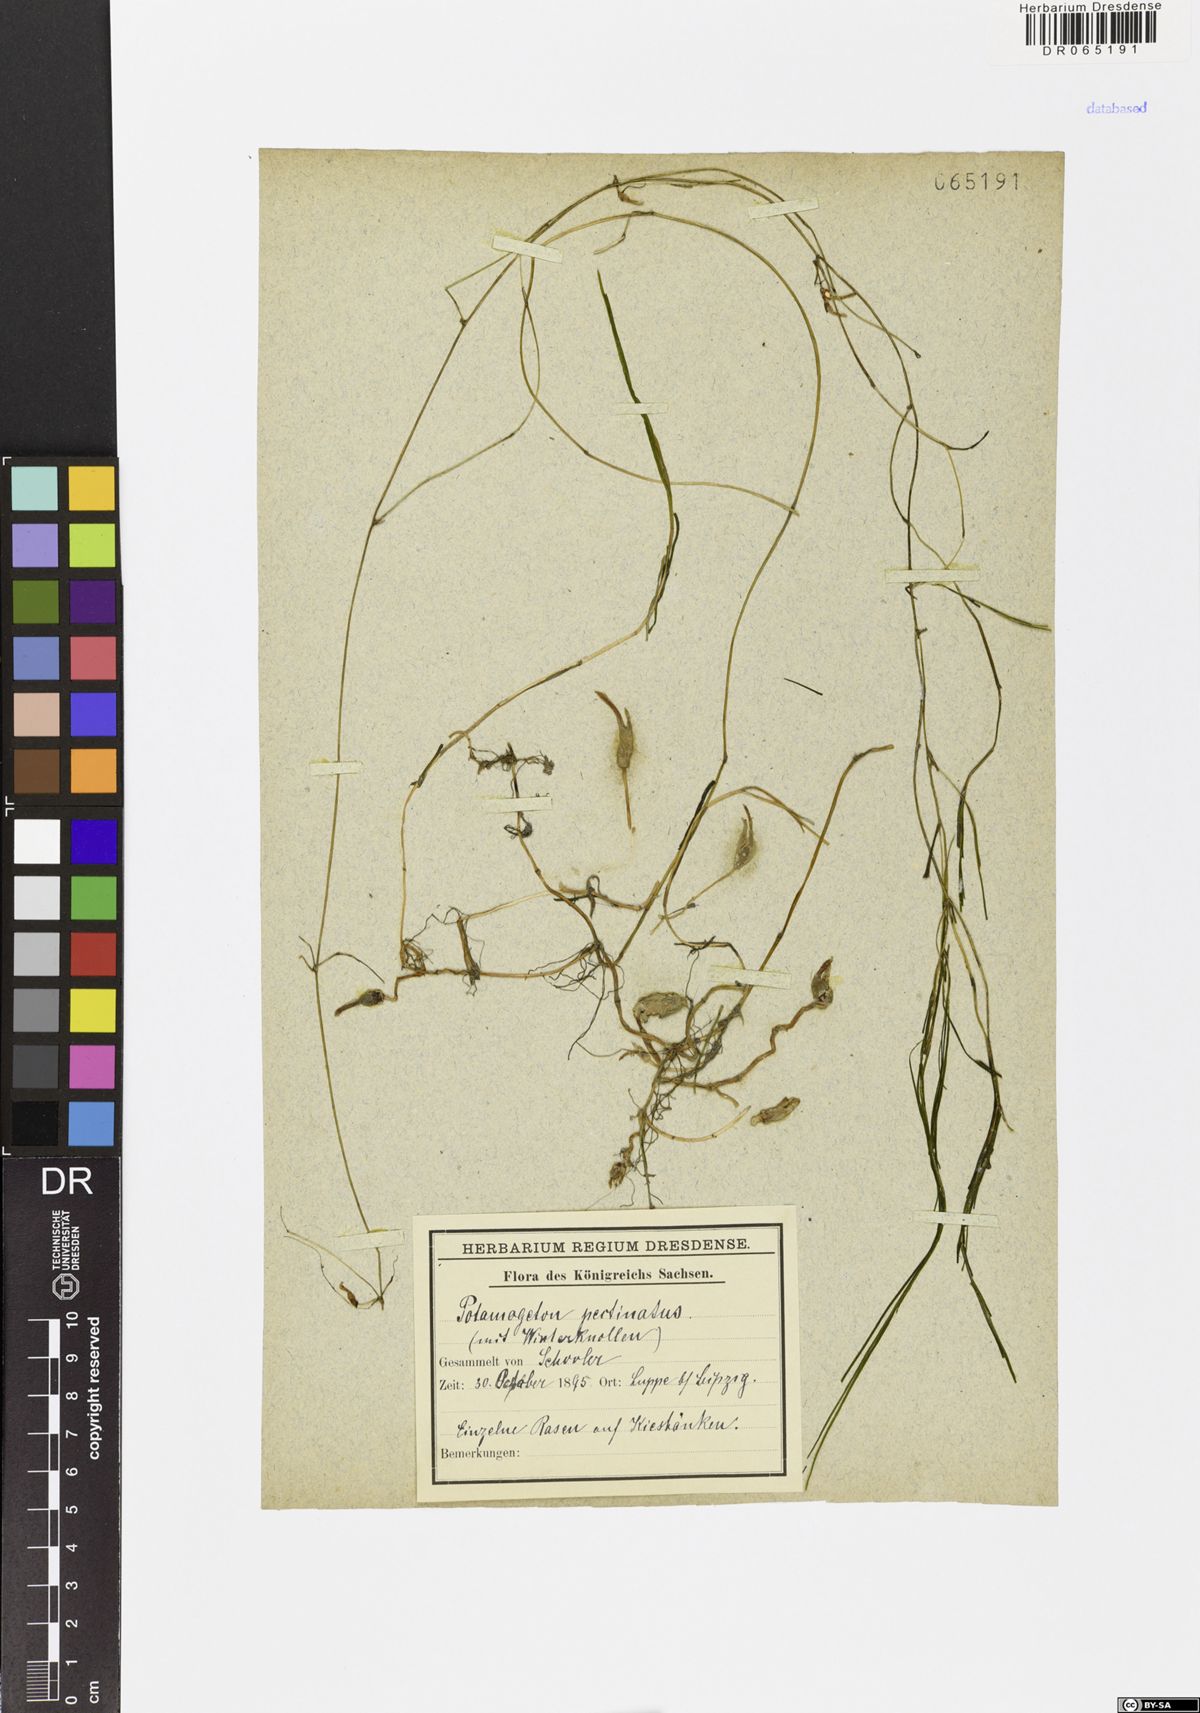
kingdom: Plantae
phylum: Tracheophyta
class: Liliopsida
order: Alismatales
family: Potamogetonaceae
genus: Stuckenia
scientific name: Stuckenia pectinata
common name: Sago pondweed
